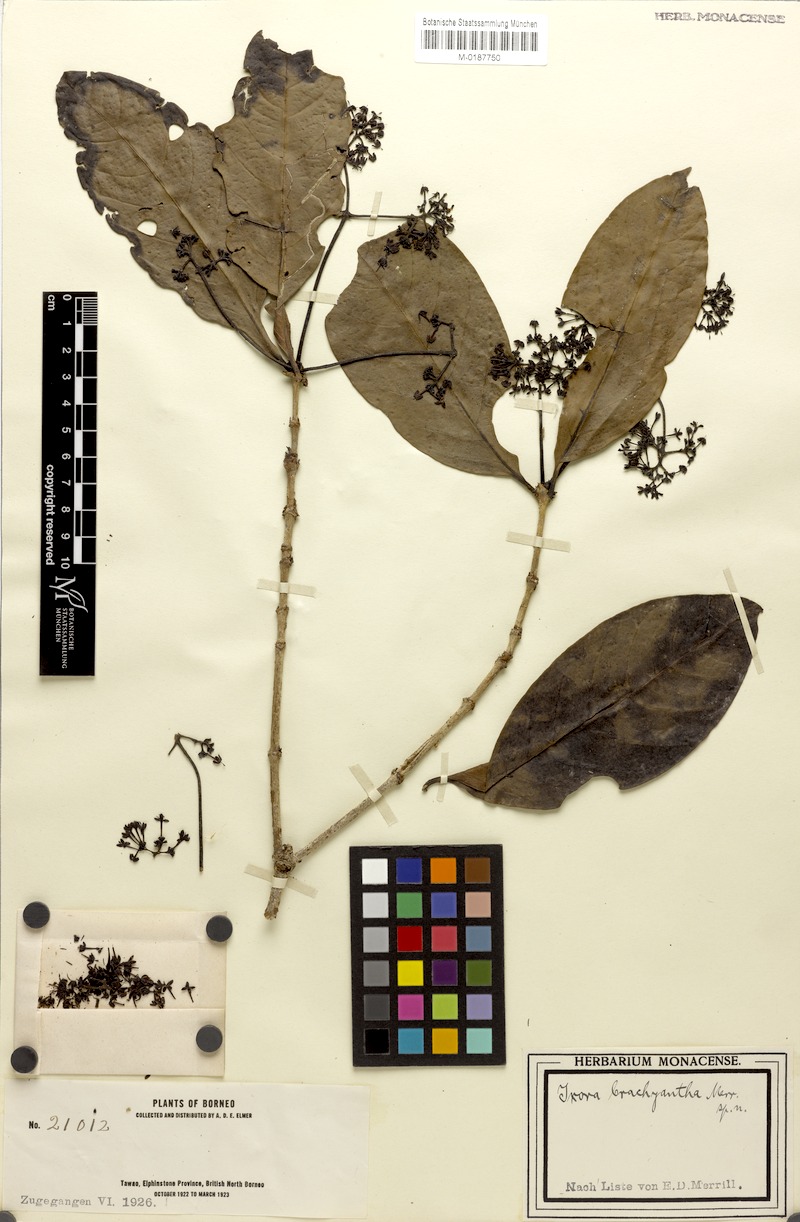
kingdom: Plantae
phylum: Tracheophyta
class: Magnoliopsida
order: Gentianales
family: Rubiaceae
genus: Ixora
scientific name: Ixora brachyantha
